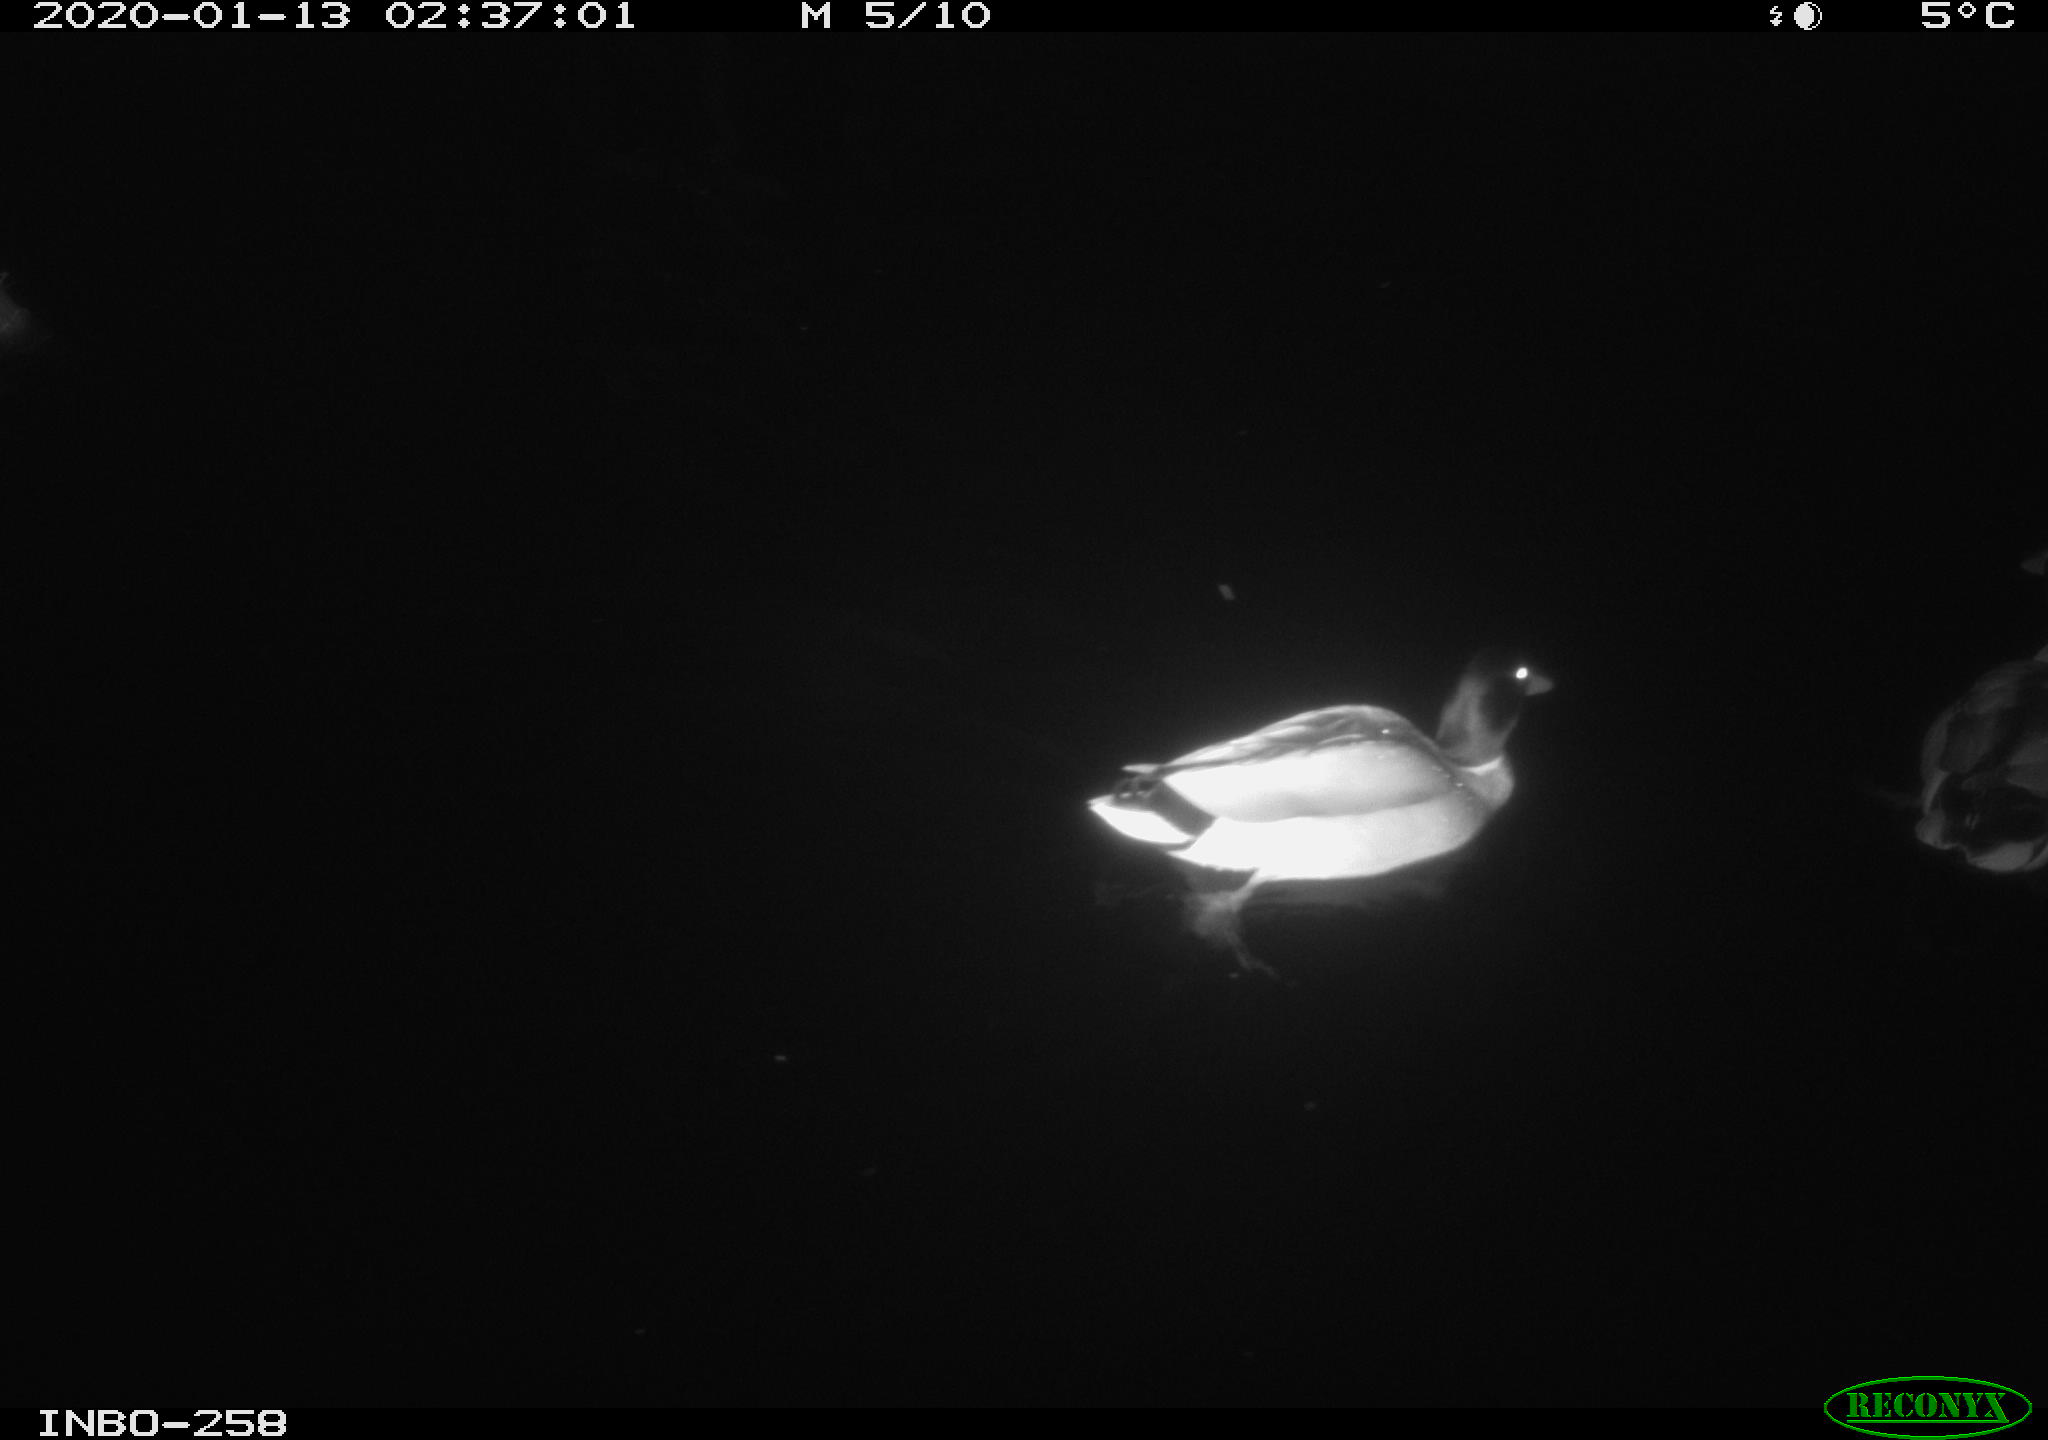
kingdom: Animalia
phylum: Chordata
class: Aves
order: Anseriformes
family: Anatidae
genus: Anas
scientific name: Anas platyrhynchos
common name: Mallard
